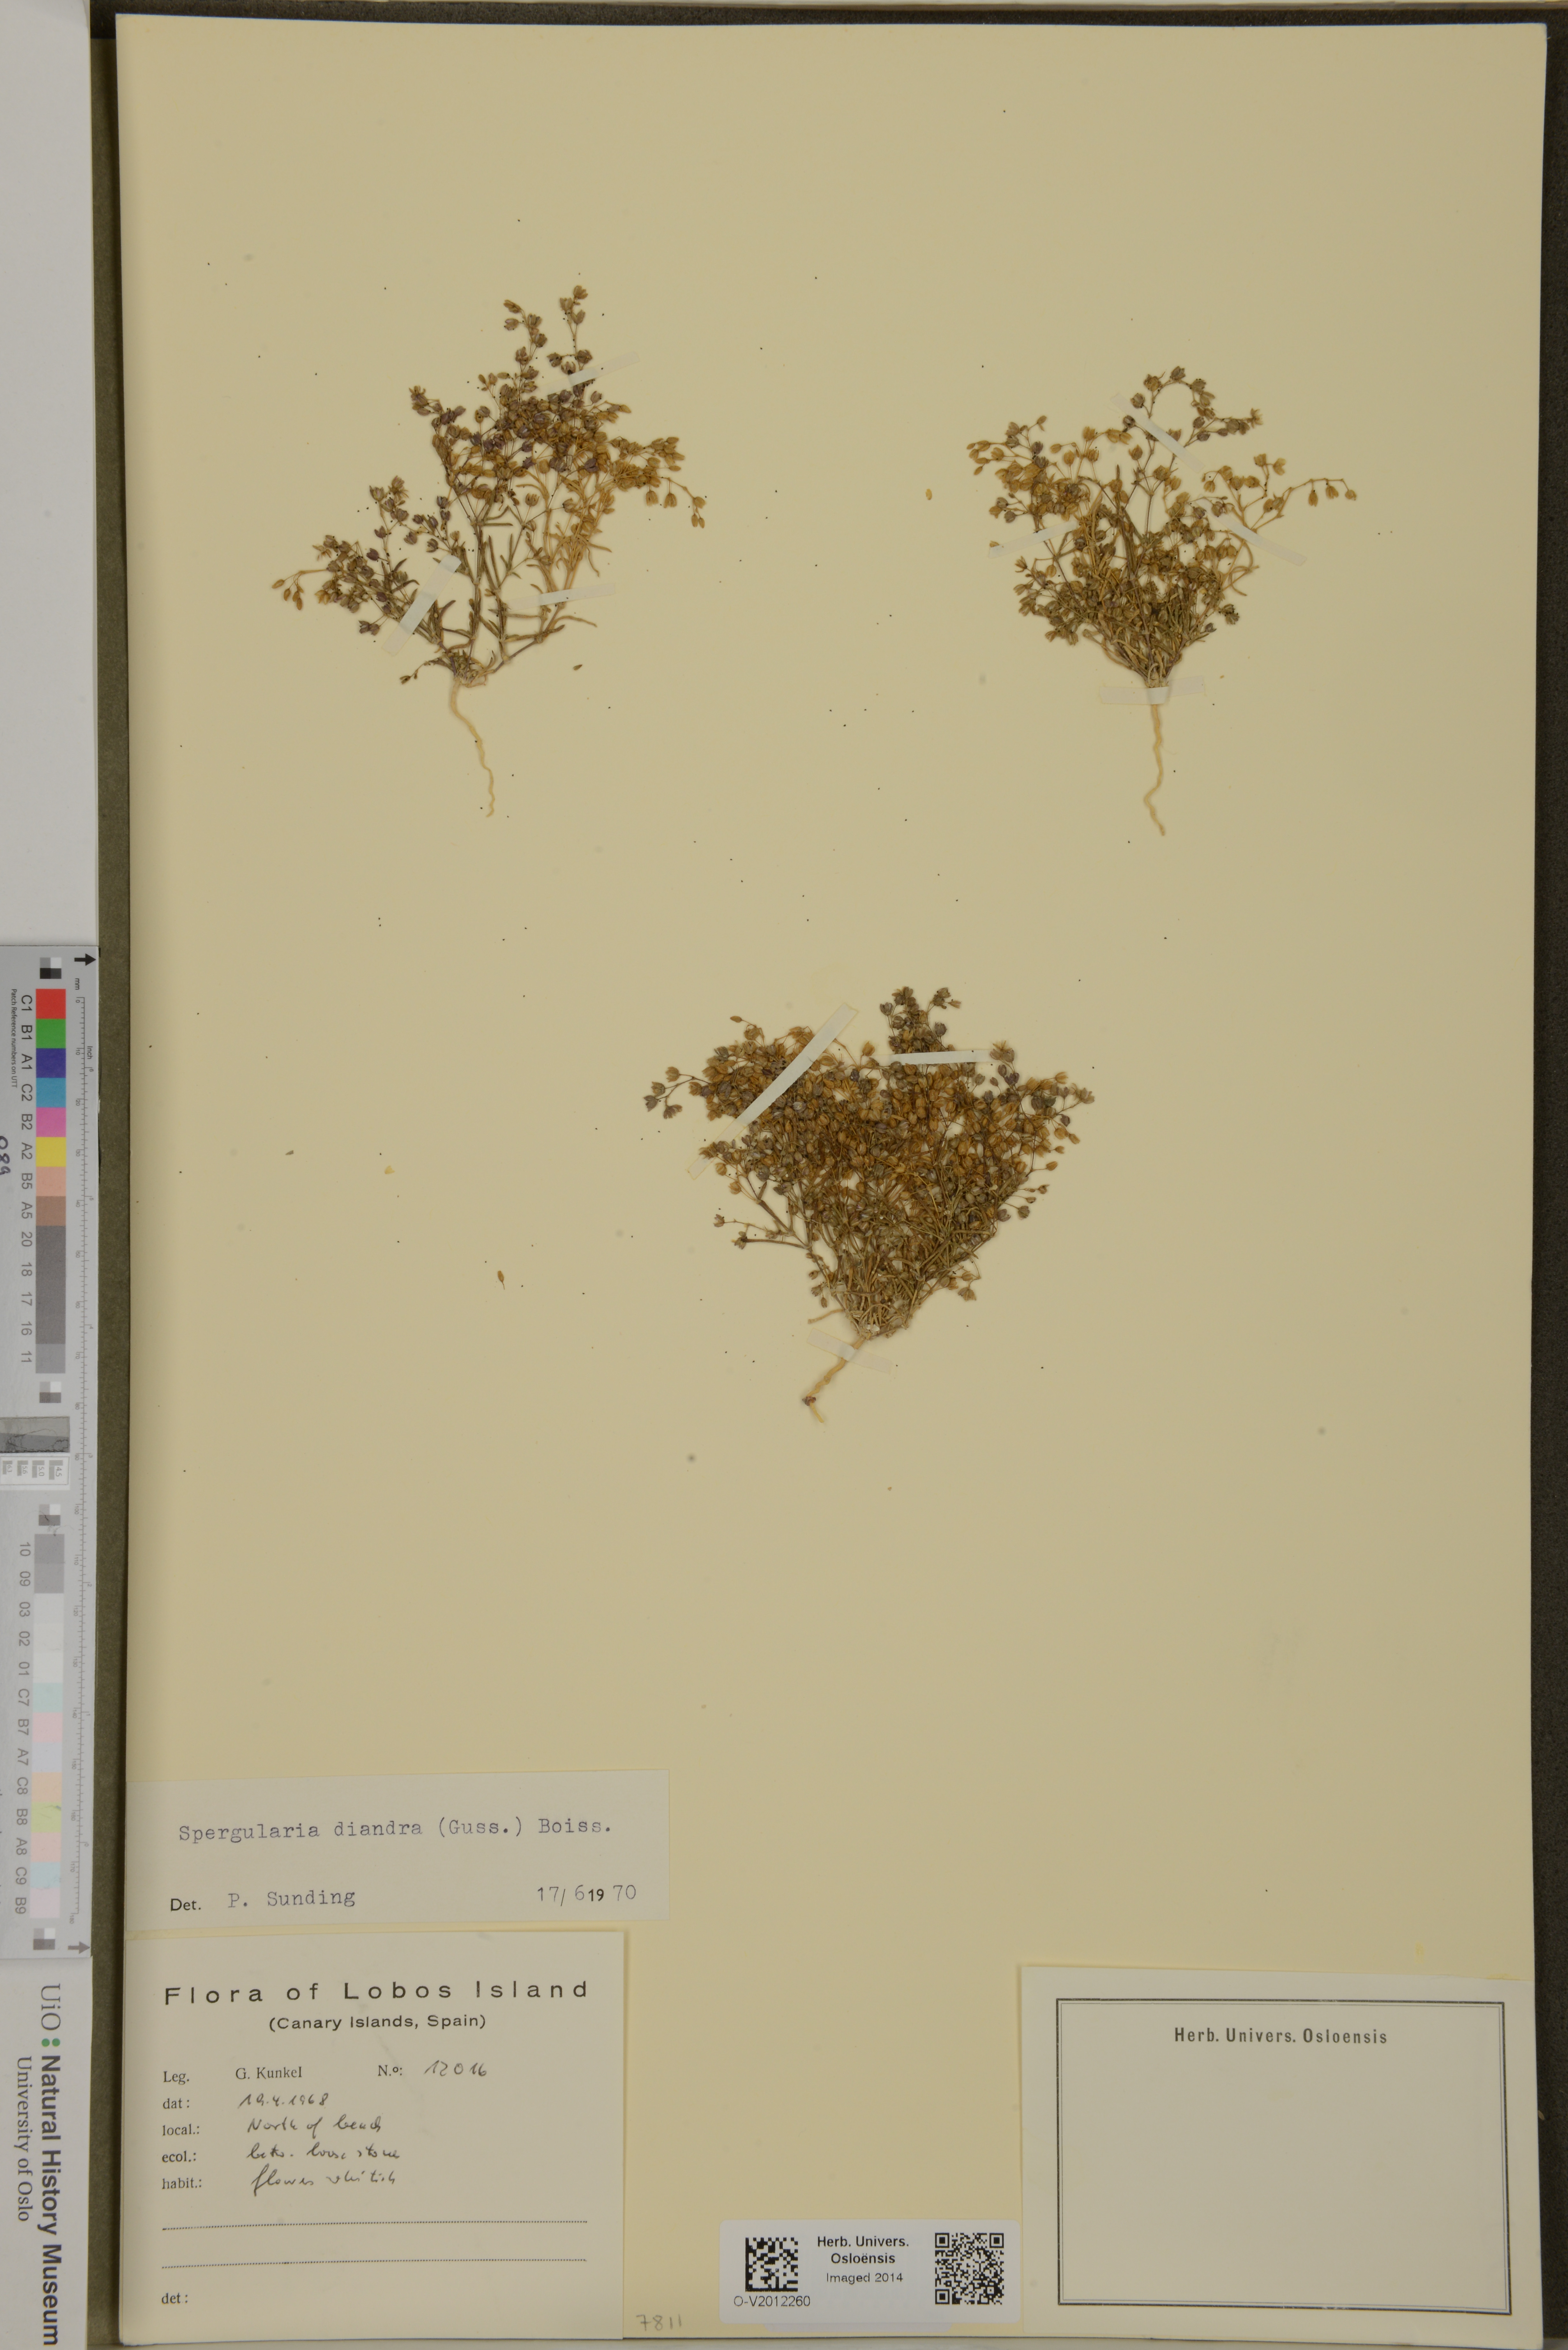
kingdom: Plantae
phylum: Tracheophyta
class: Magnoliopsida
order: Caryophyllales
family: Caryophyllaceae
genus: Spergularia
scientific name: Spergularia diandra
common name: Alkali sand-spurrey
